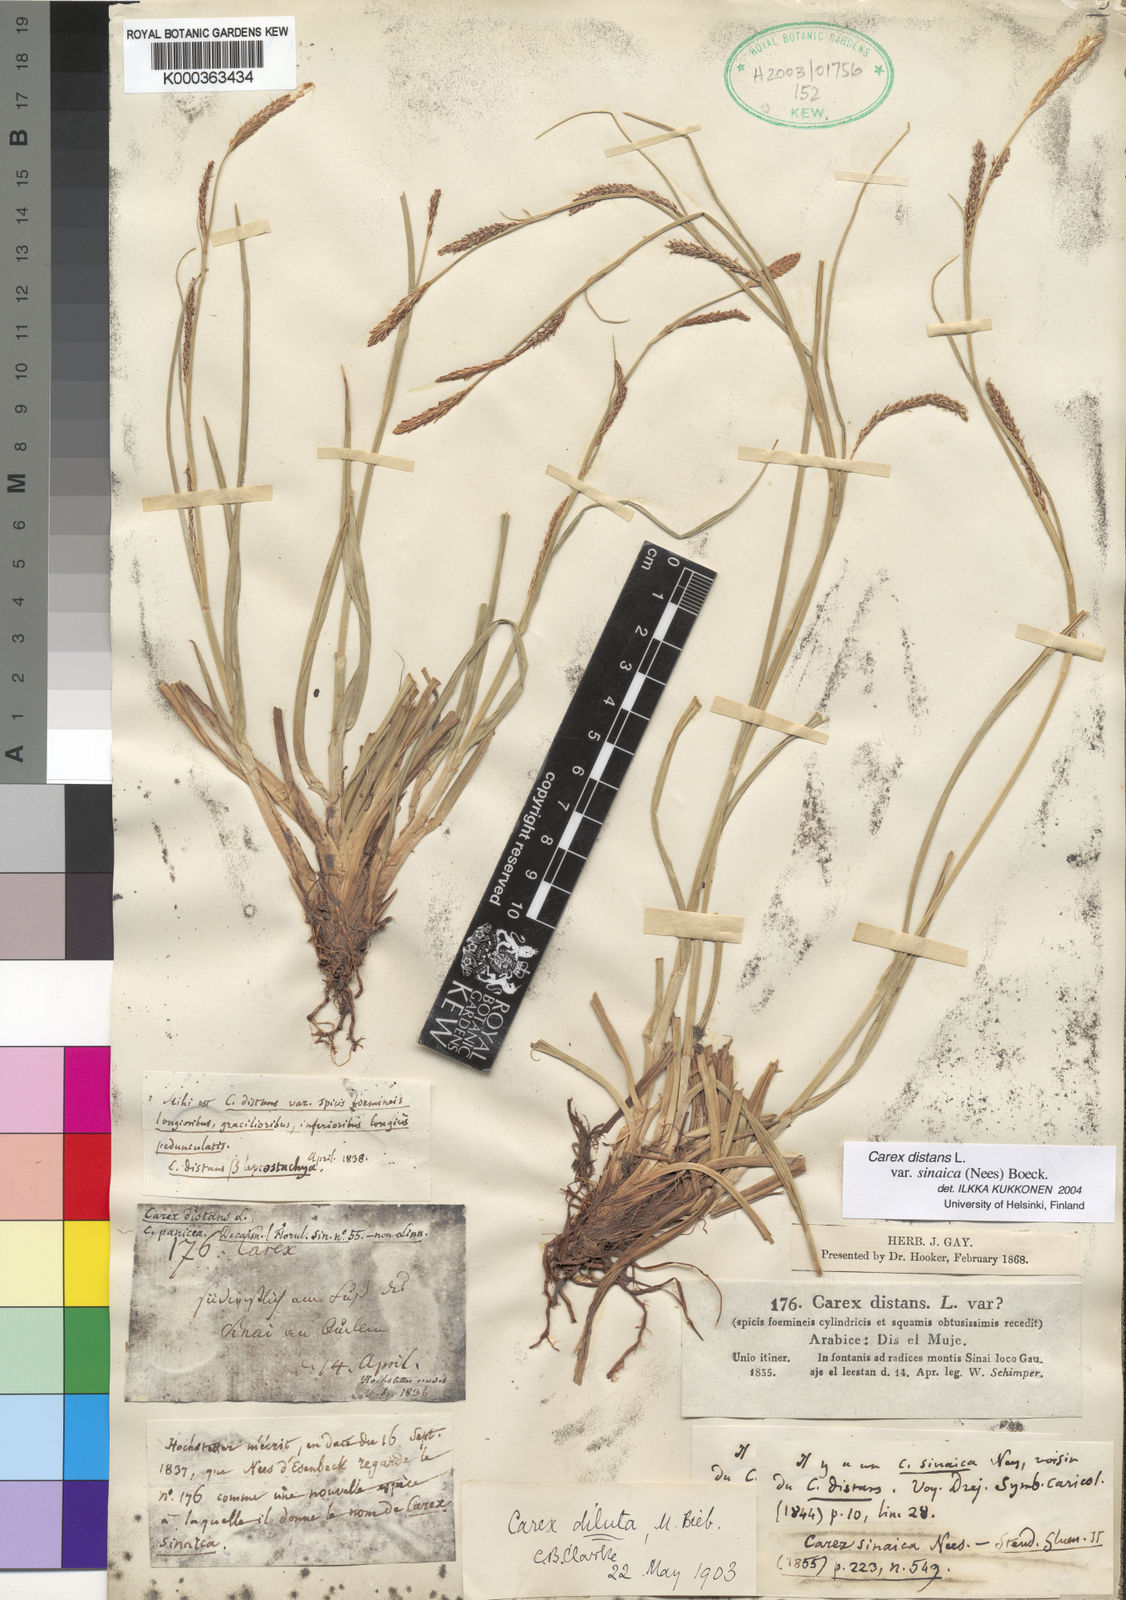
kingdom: Plantae
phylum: Tracheophyta
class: Liliopsida
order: Poales
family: Cyperaceae
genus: Carex
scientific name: Carex distans
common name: Distant sedge
